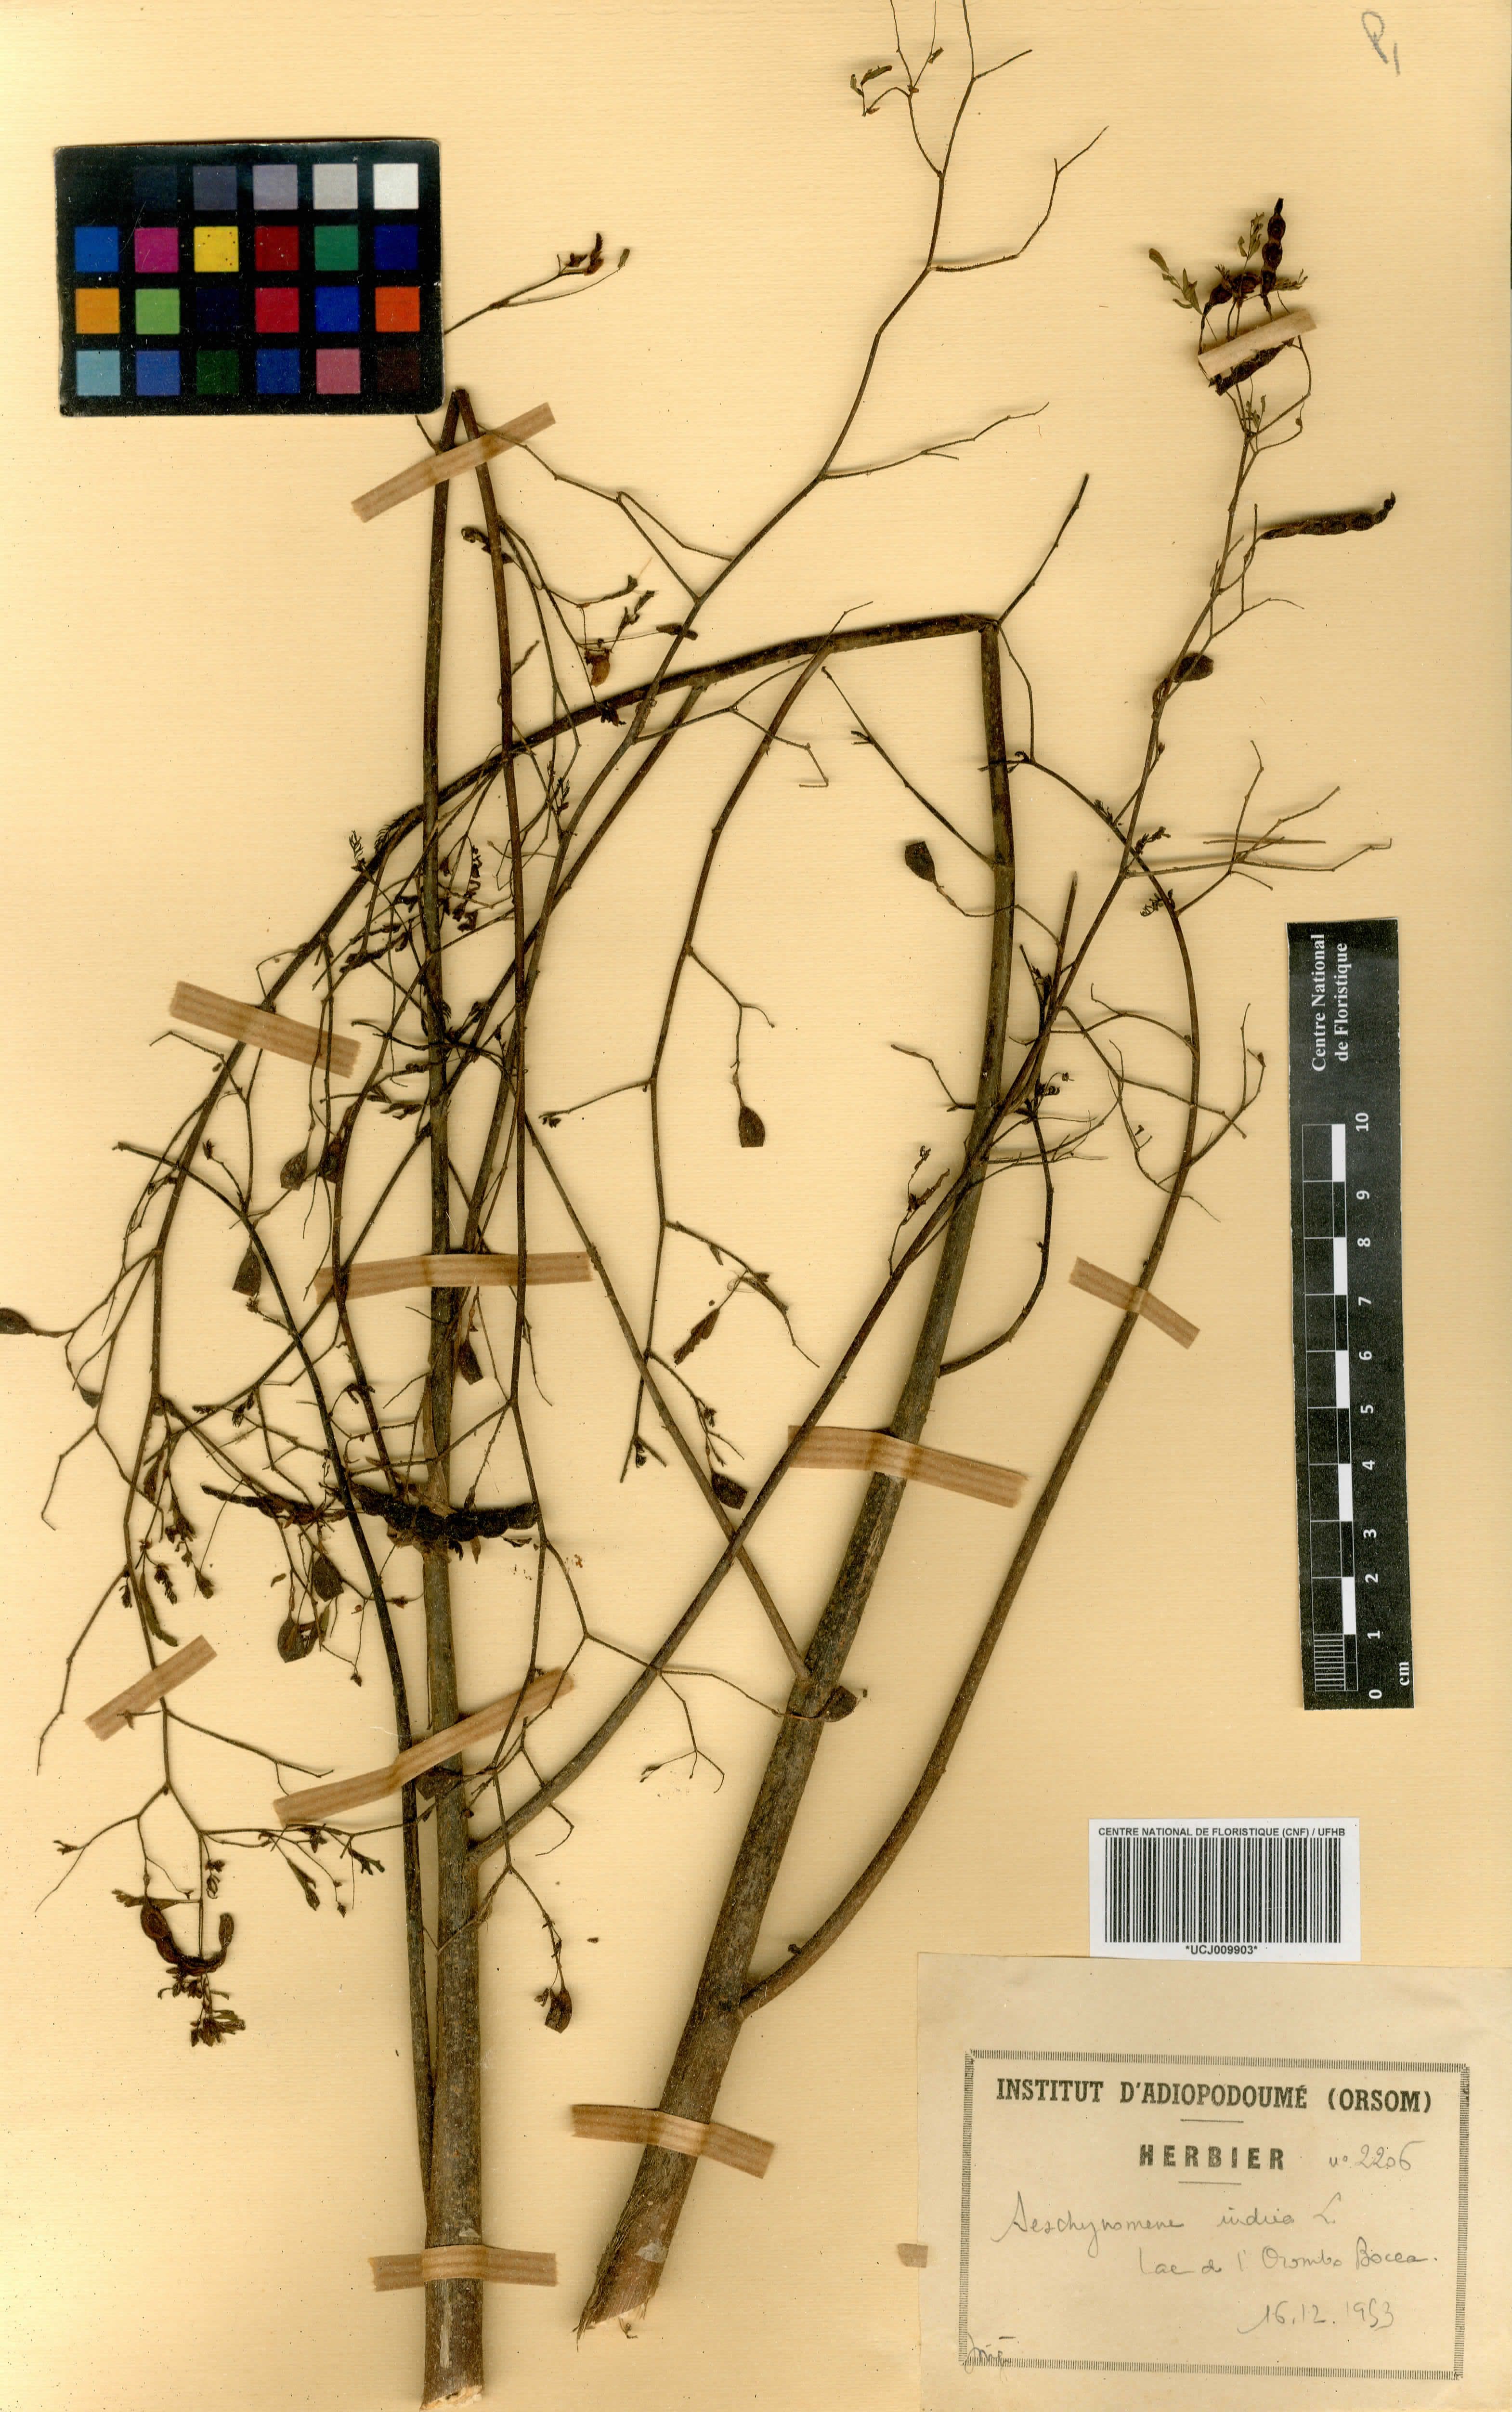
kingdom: Plantae
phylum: Tracheophyta
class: Magnoliopsida
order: Fabales
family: Fabaceae
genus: Aeschynomene
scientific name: Aeschynomene indica
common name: Indian jointvetch
